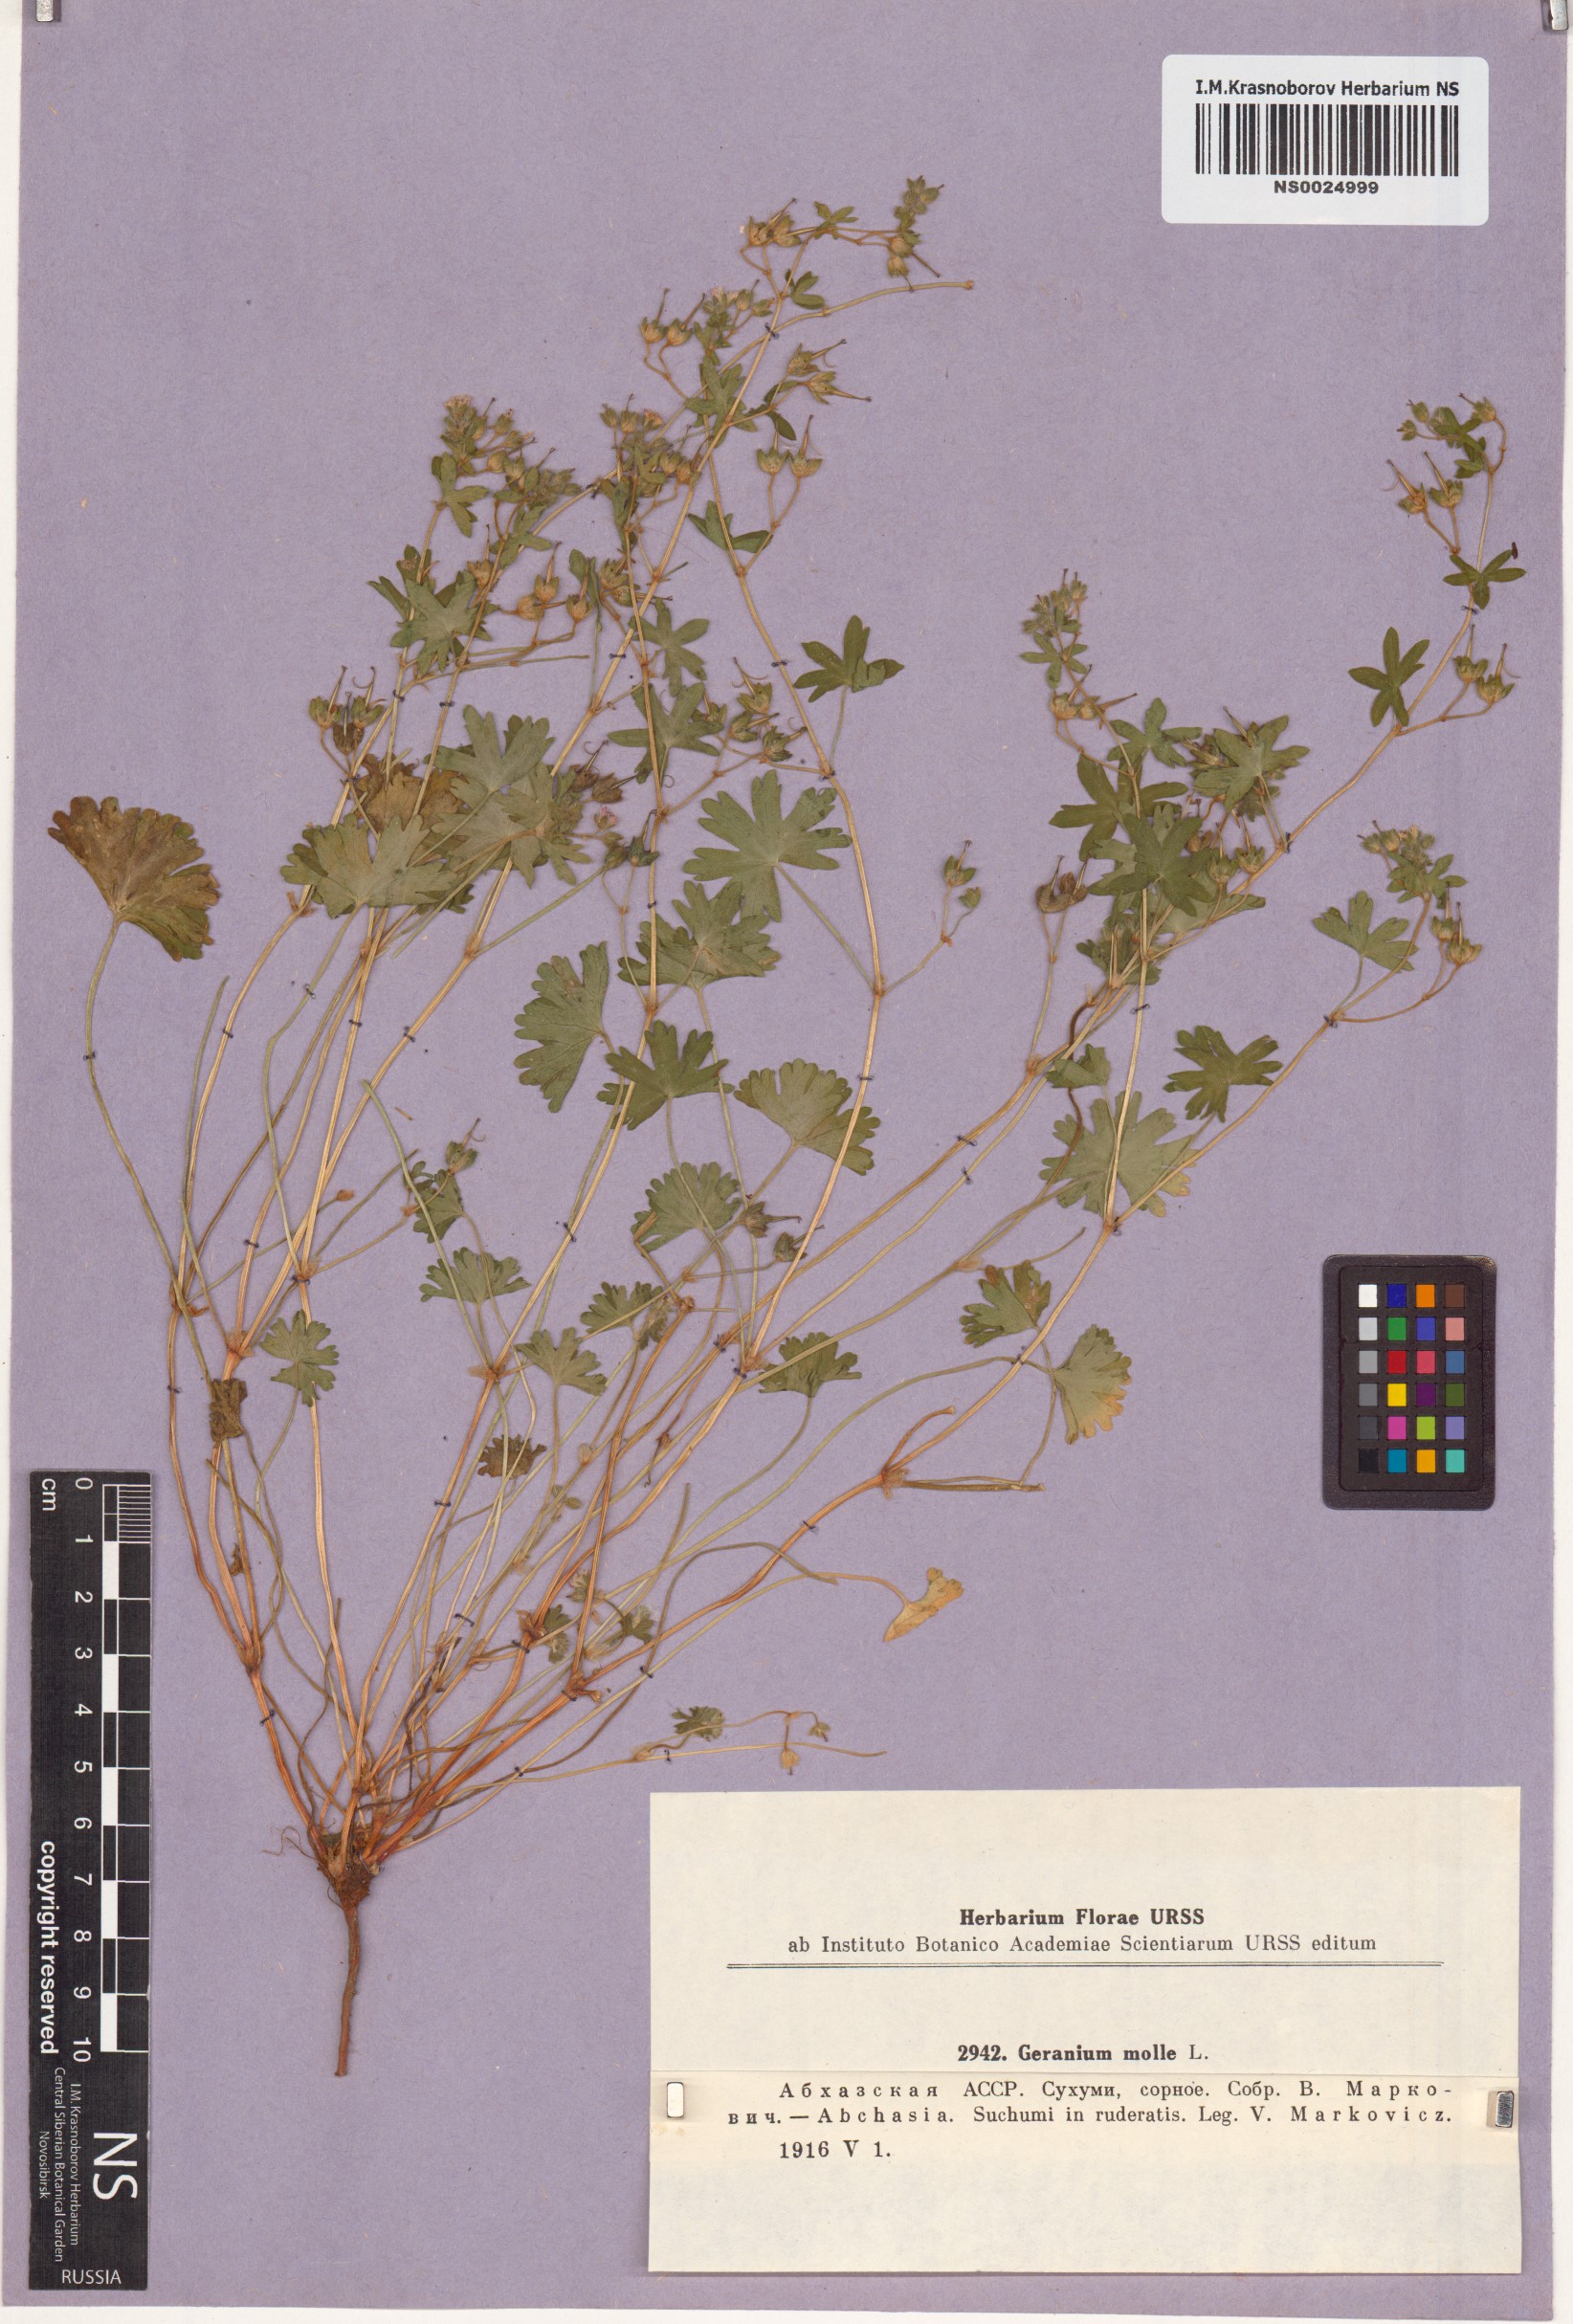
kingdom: Plantae
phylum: Tracheophyta
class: Magnoliopsida
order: Geraniales
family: Geraniaceae
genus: Geranium
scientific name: Geranium molle
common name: Dove's-foot crane's-bill
